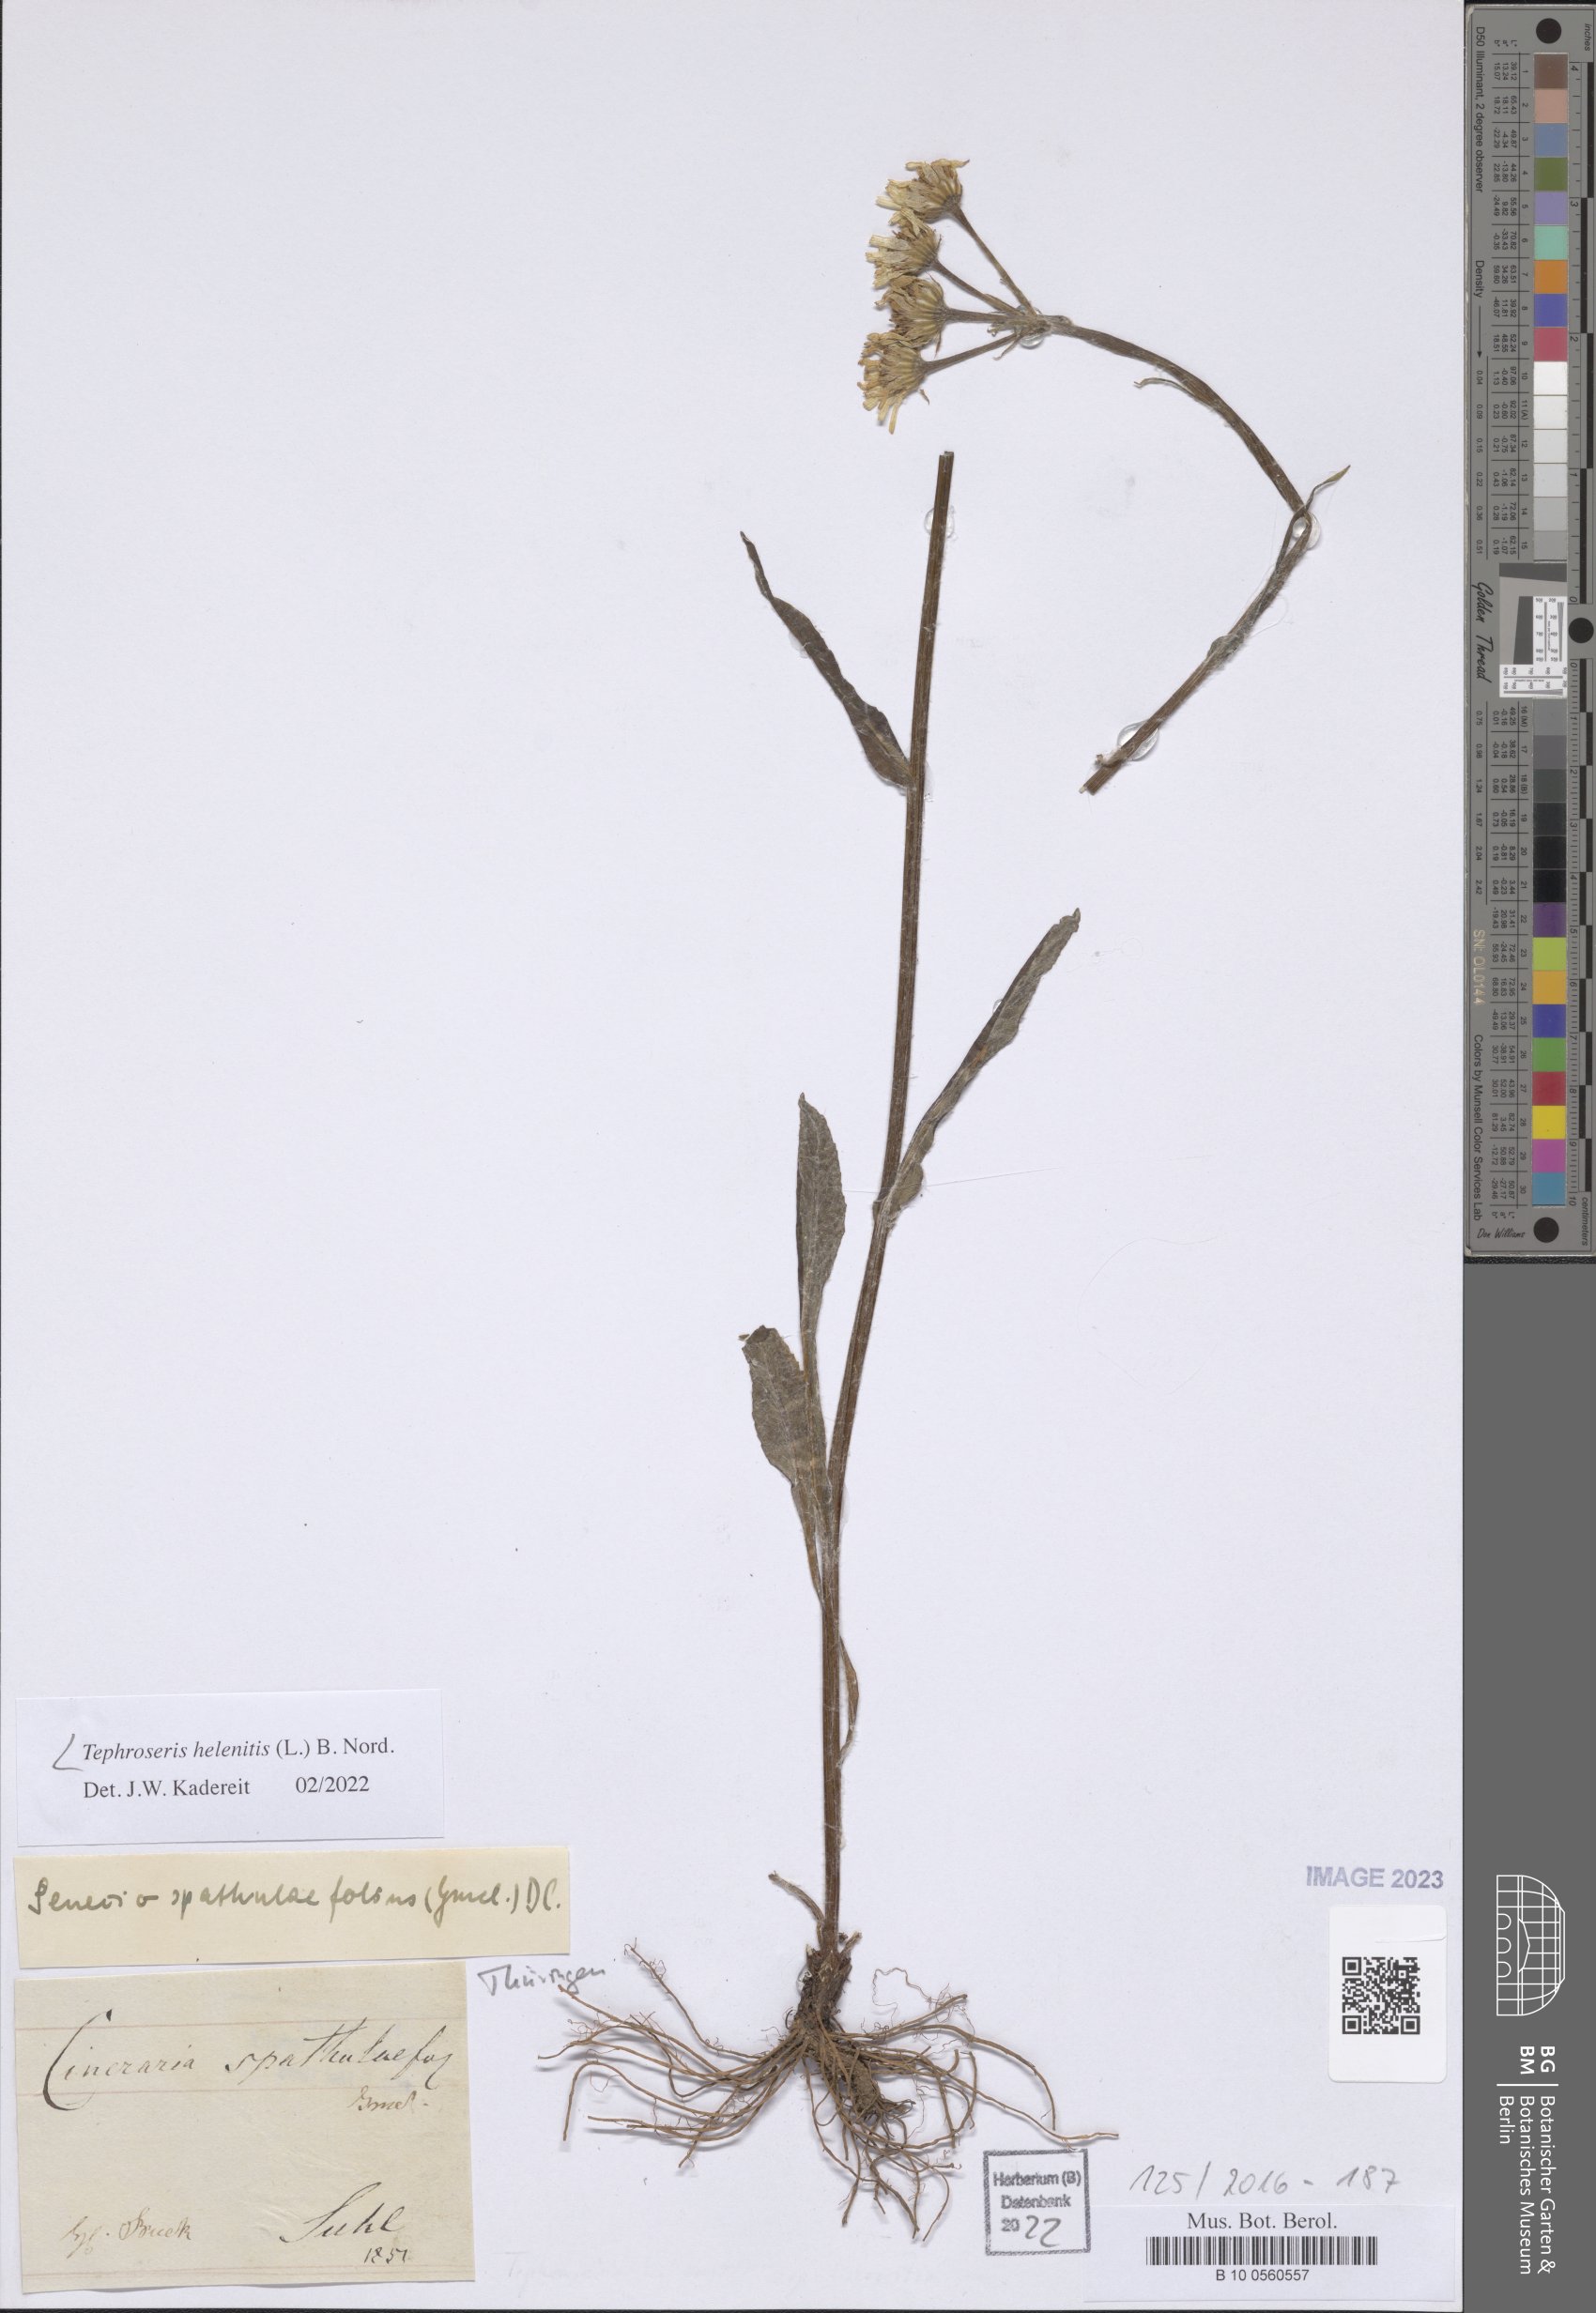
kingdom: Plantae
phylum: Tracheophyta
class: Magnoliopsida
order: Asterales
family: Asteraceae
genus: Tephroseris
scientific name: Tephroseris helenitis
